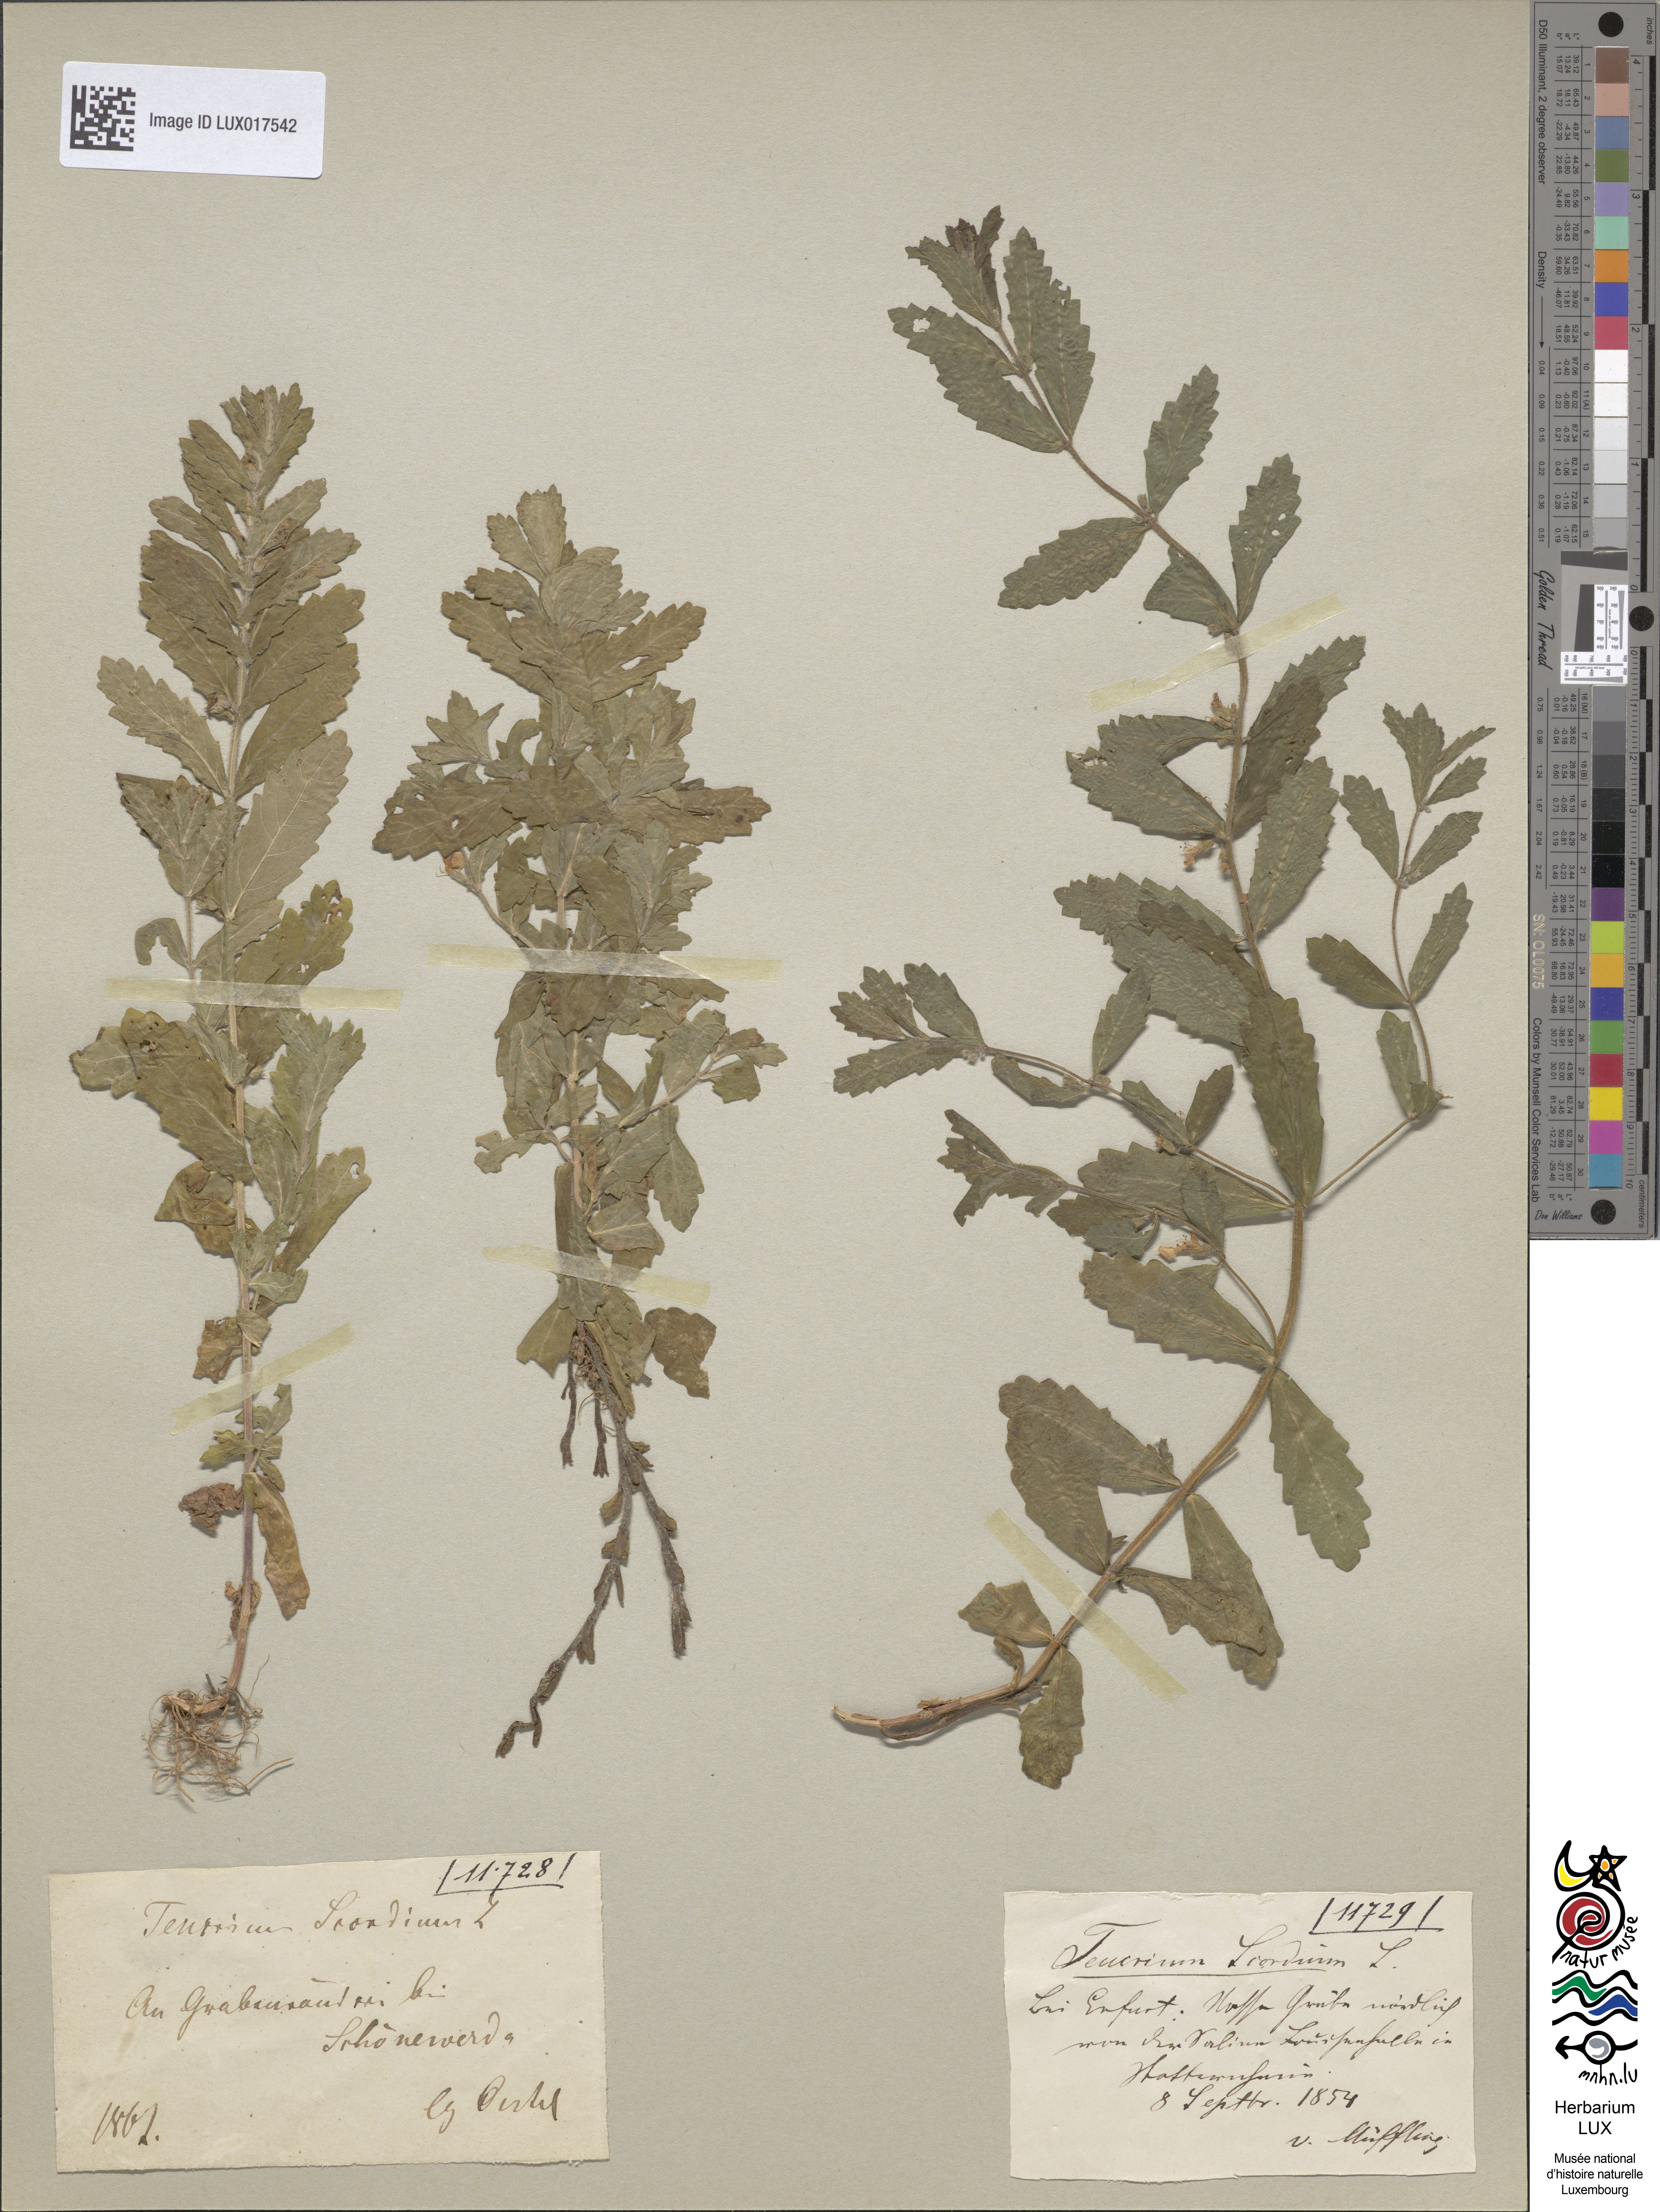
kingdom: Plantae
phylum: Tracheophyta
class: Magnoliopsida
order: Lamiales
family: Lamiaceae
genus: Teucrium
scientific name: Teucrium scordium
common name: Water germander
